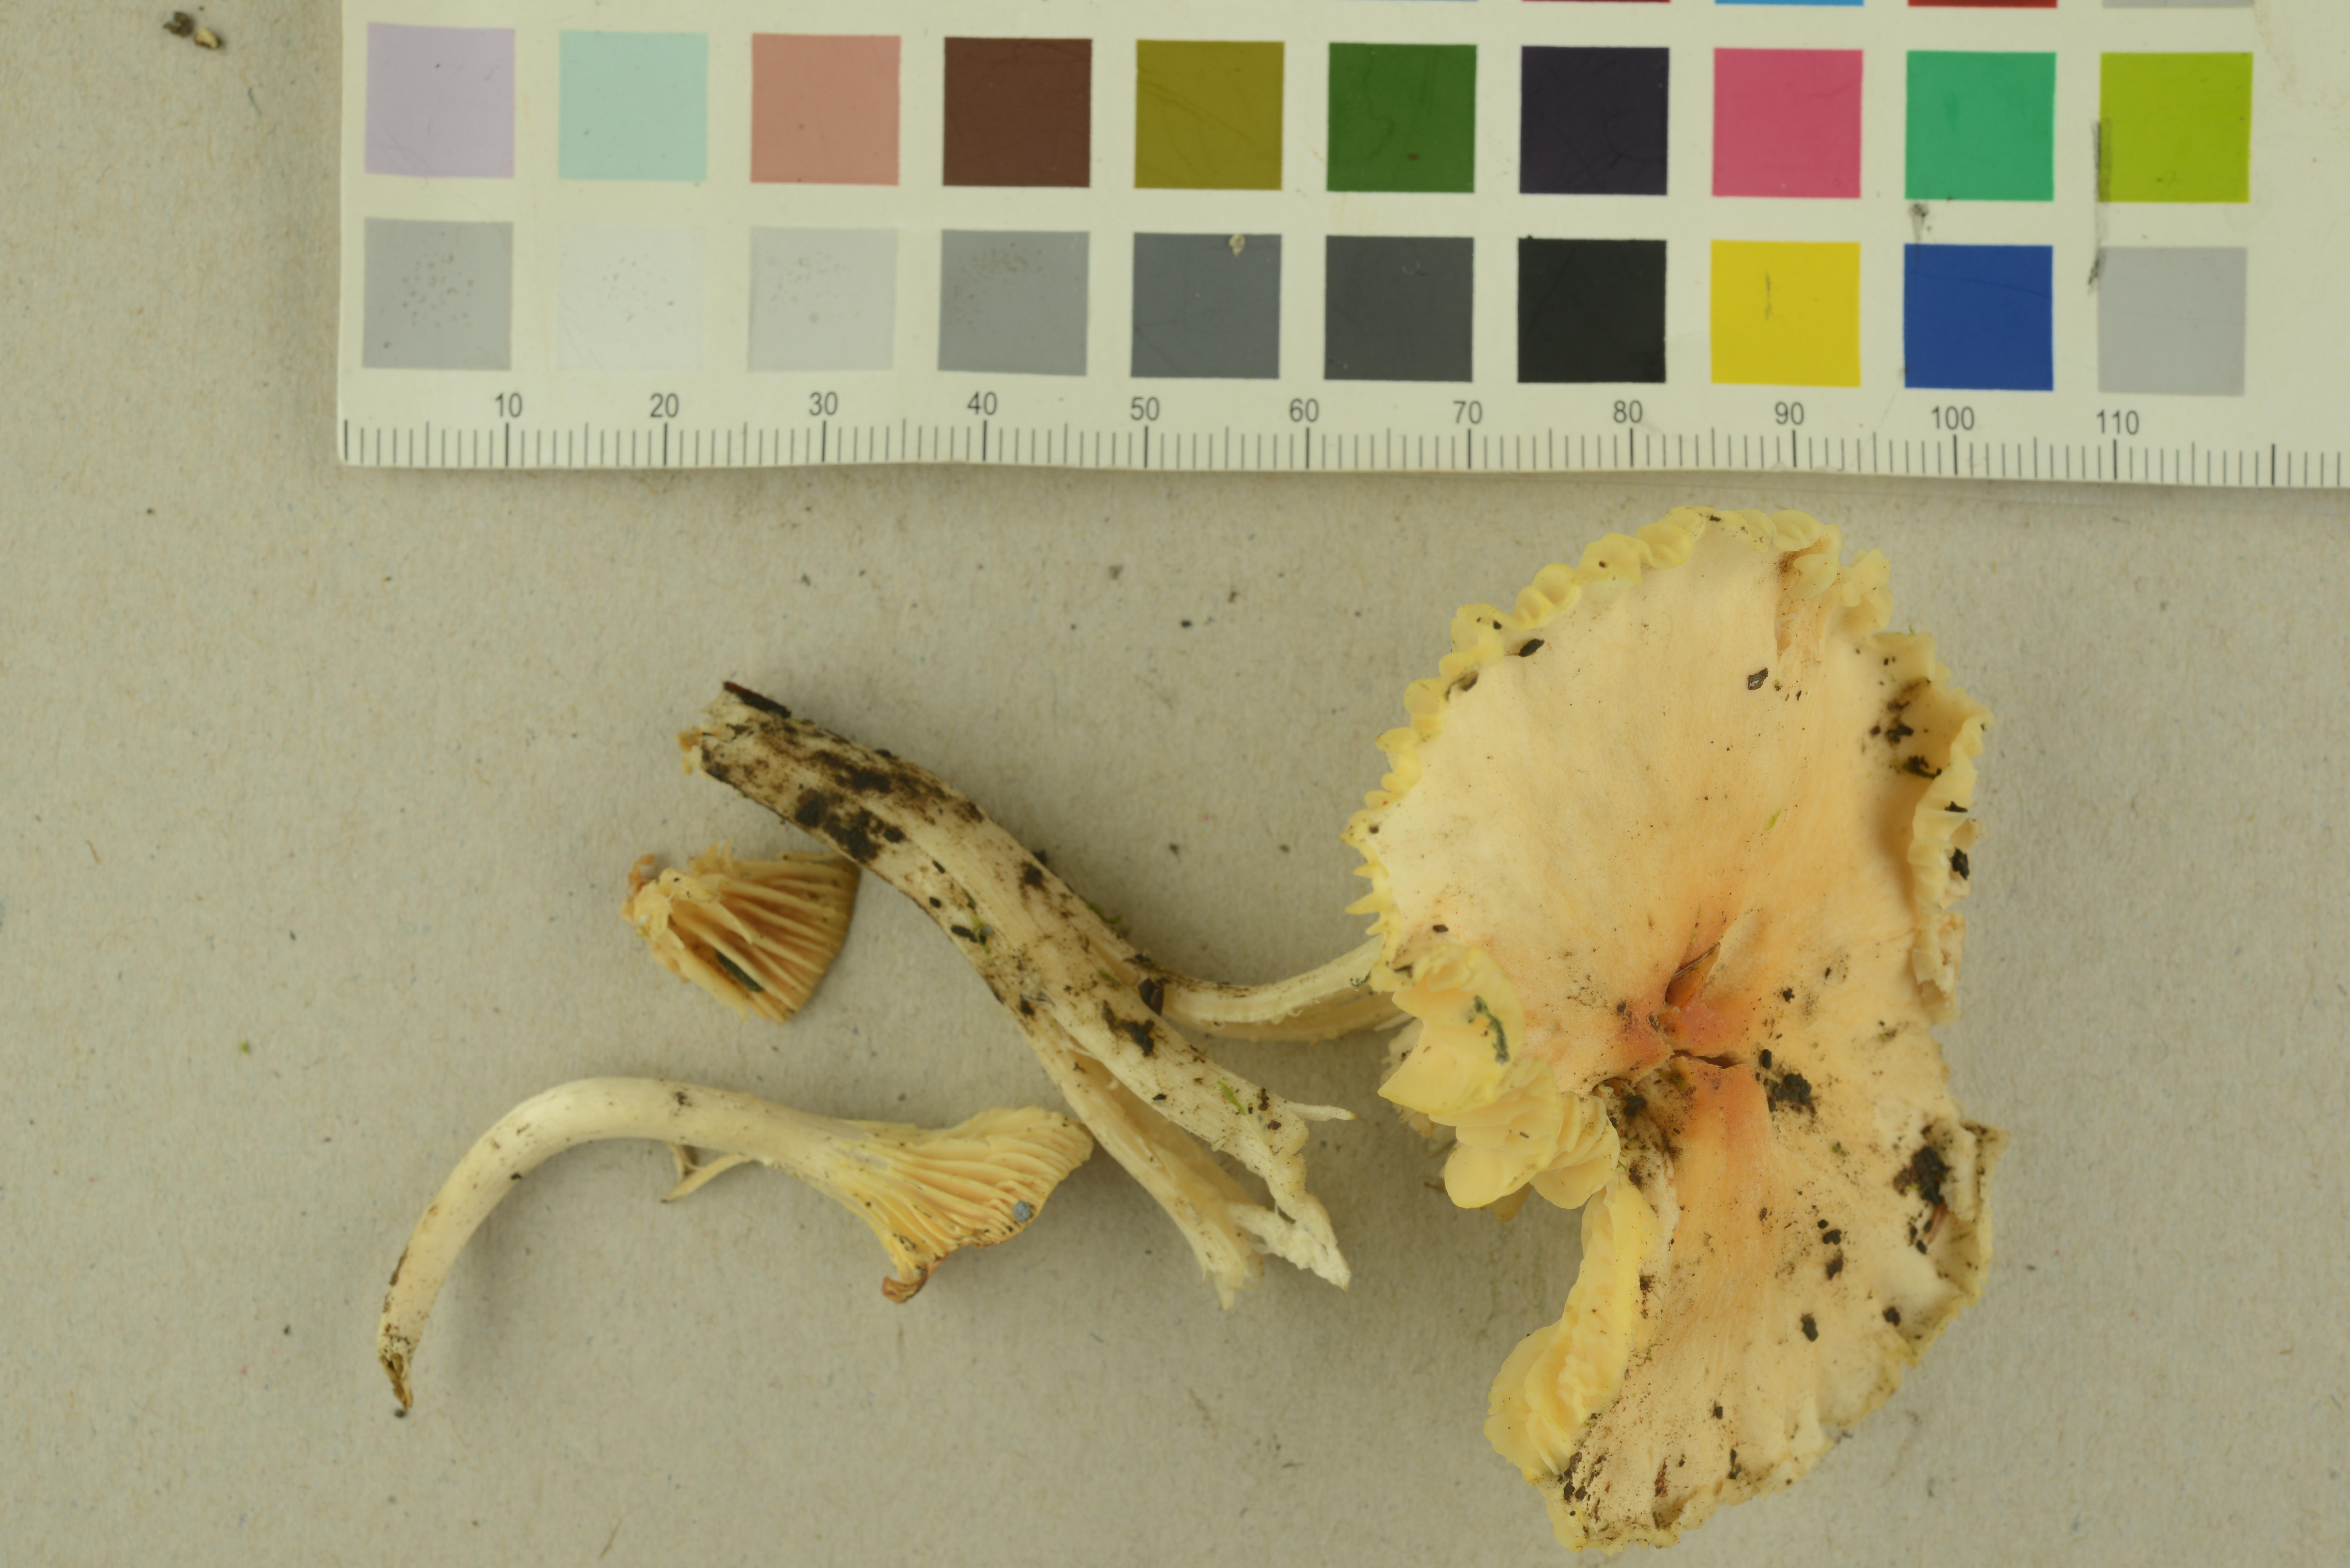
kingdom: Fungi
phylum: Basidiomycota
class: Agaricomycetes
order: Agaricales
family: Hygrophoraceae
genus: Cuphophyllus
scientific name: Cuphophyllus pratensis
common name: Meadow waxcap
